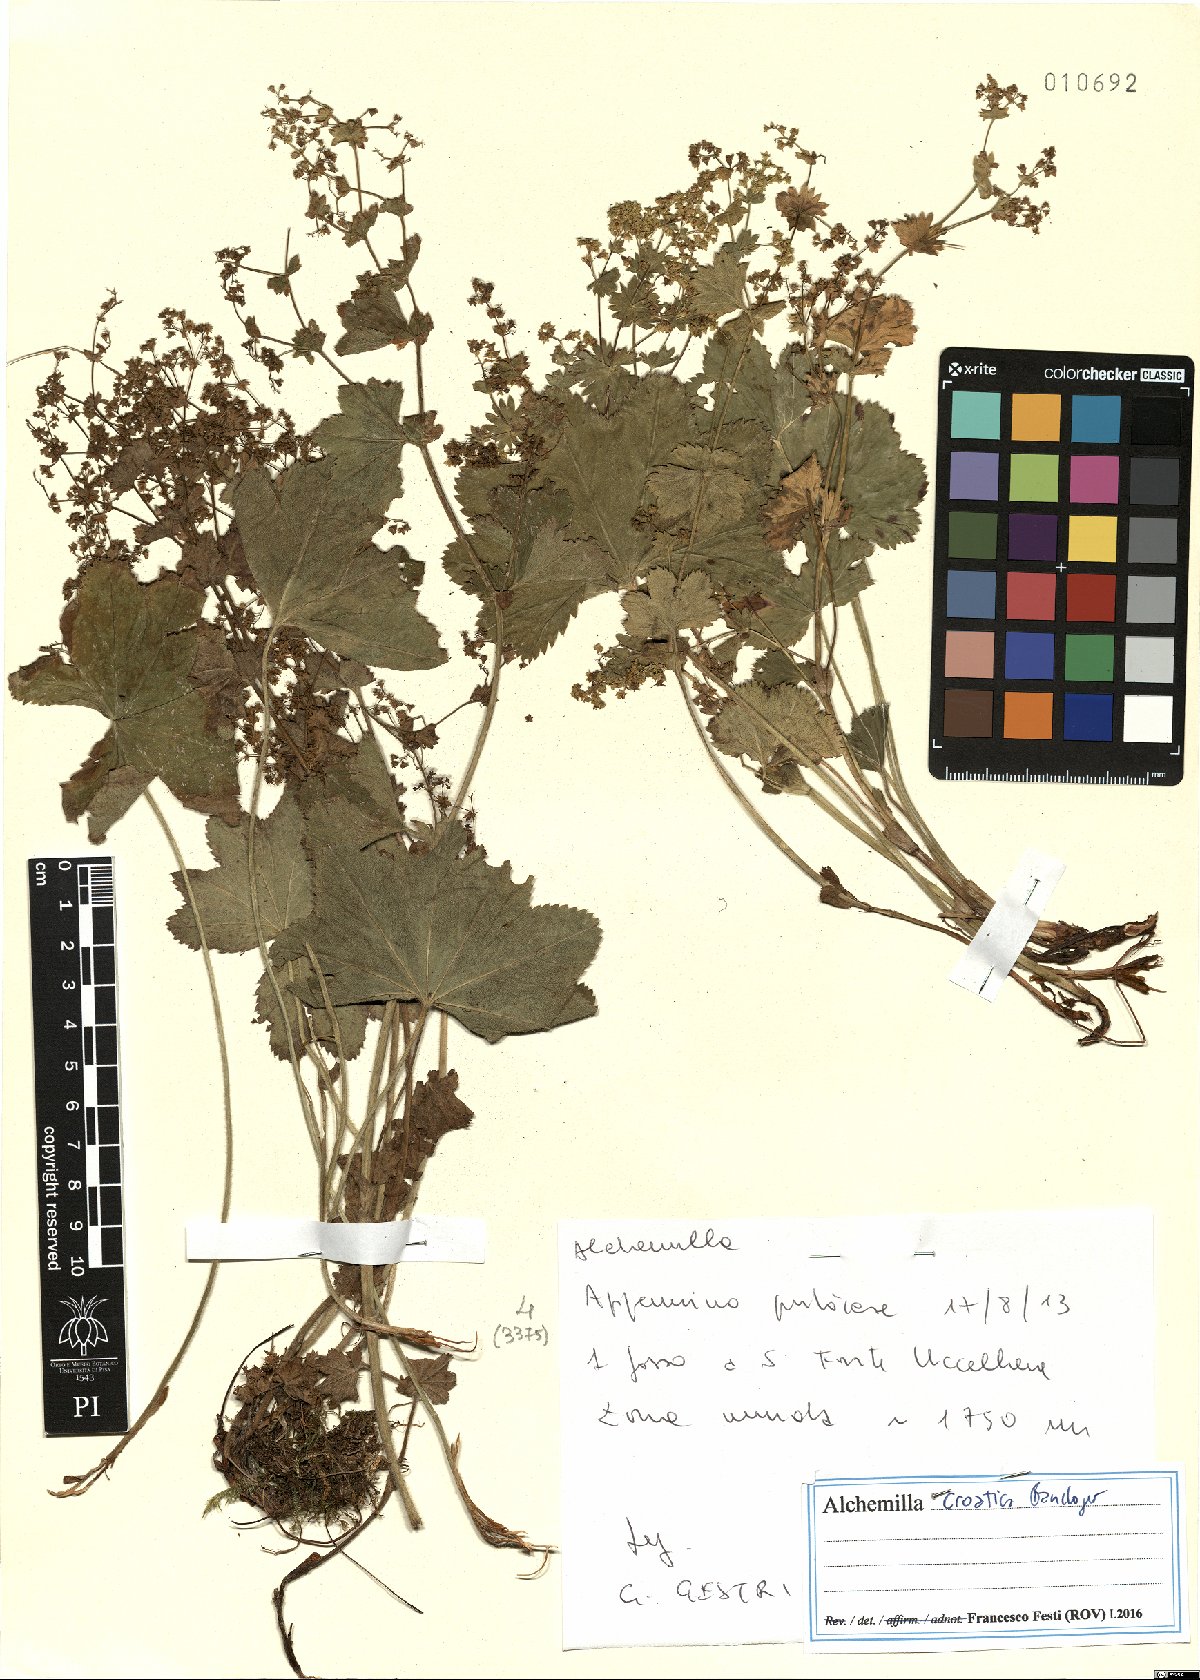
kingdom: Plantae
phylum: Tracheophyta
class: Magnoliopsida
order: Rosales
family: Rosaceae
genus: Alchemilla
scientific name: Alchemilla croatica
